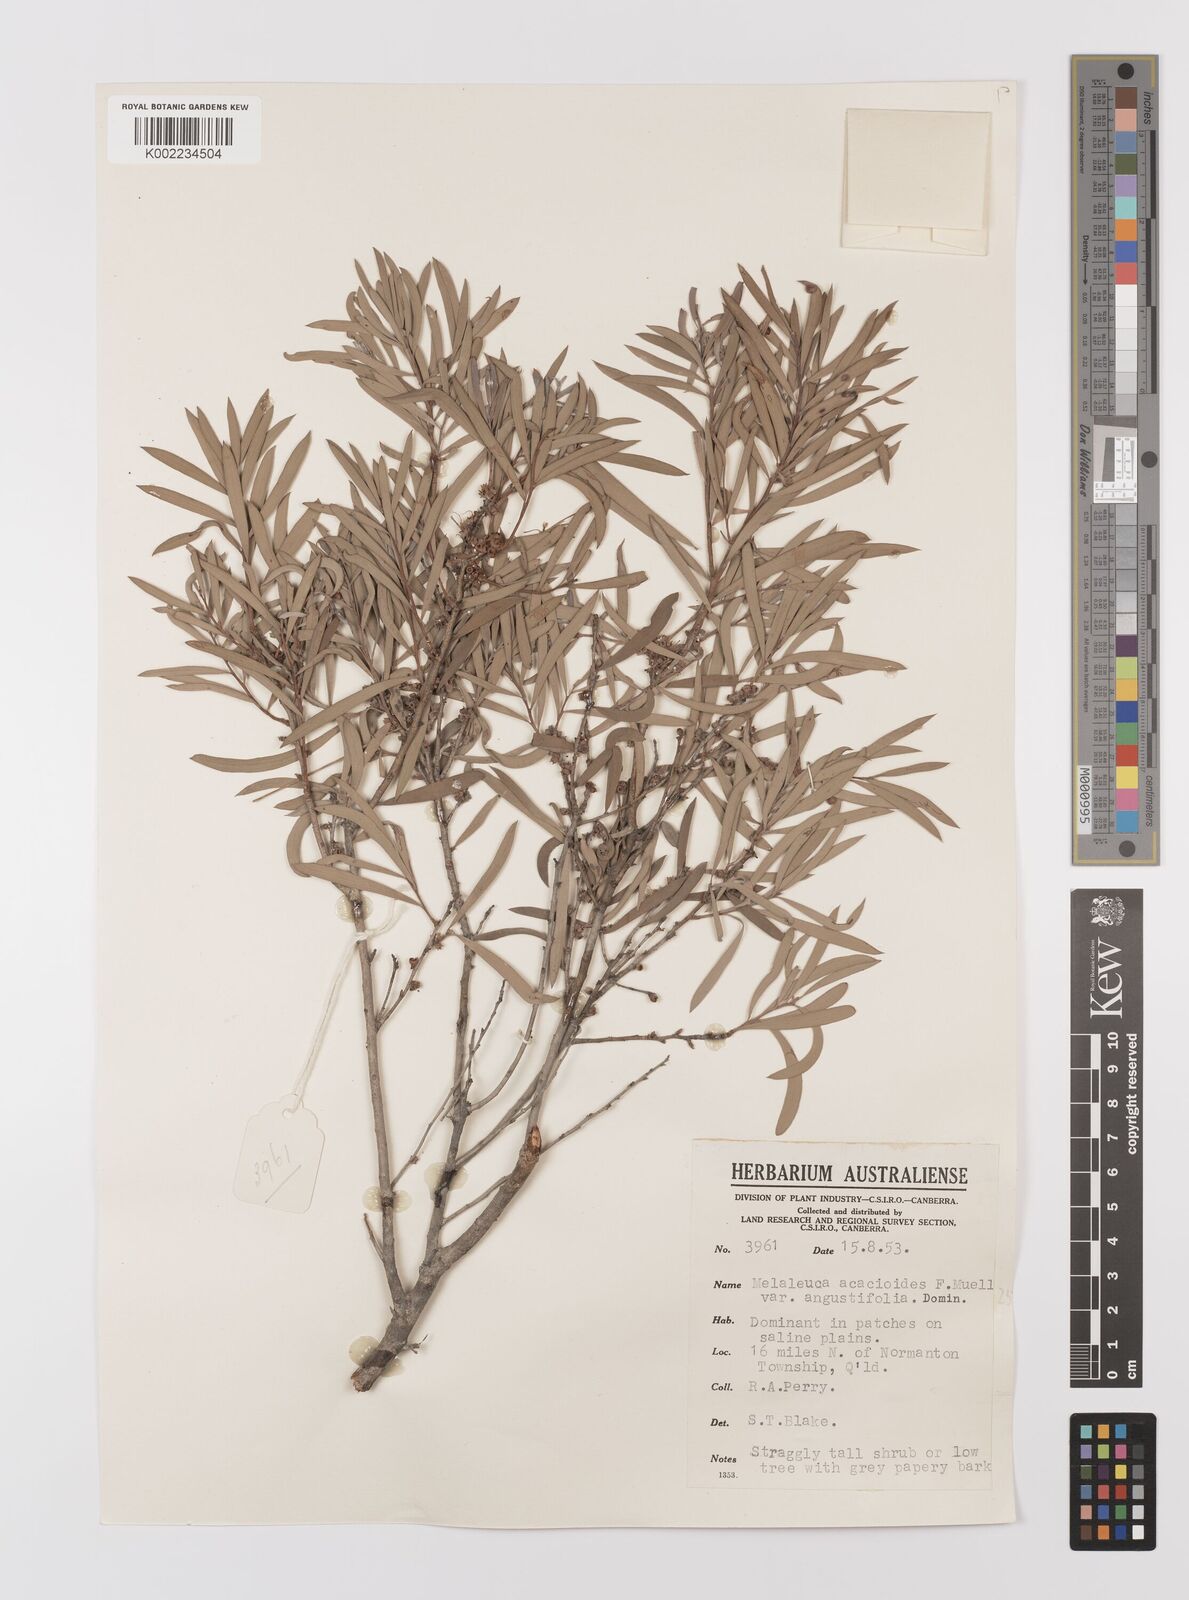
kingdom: Plantae
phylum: Tracheophyta
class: Magnoliopsida
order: Myrtales
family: Myrtaceae
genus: Melaleuca
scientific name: Melaleuca citrolens
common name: Lemon-scented paperbark
